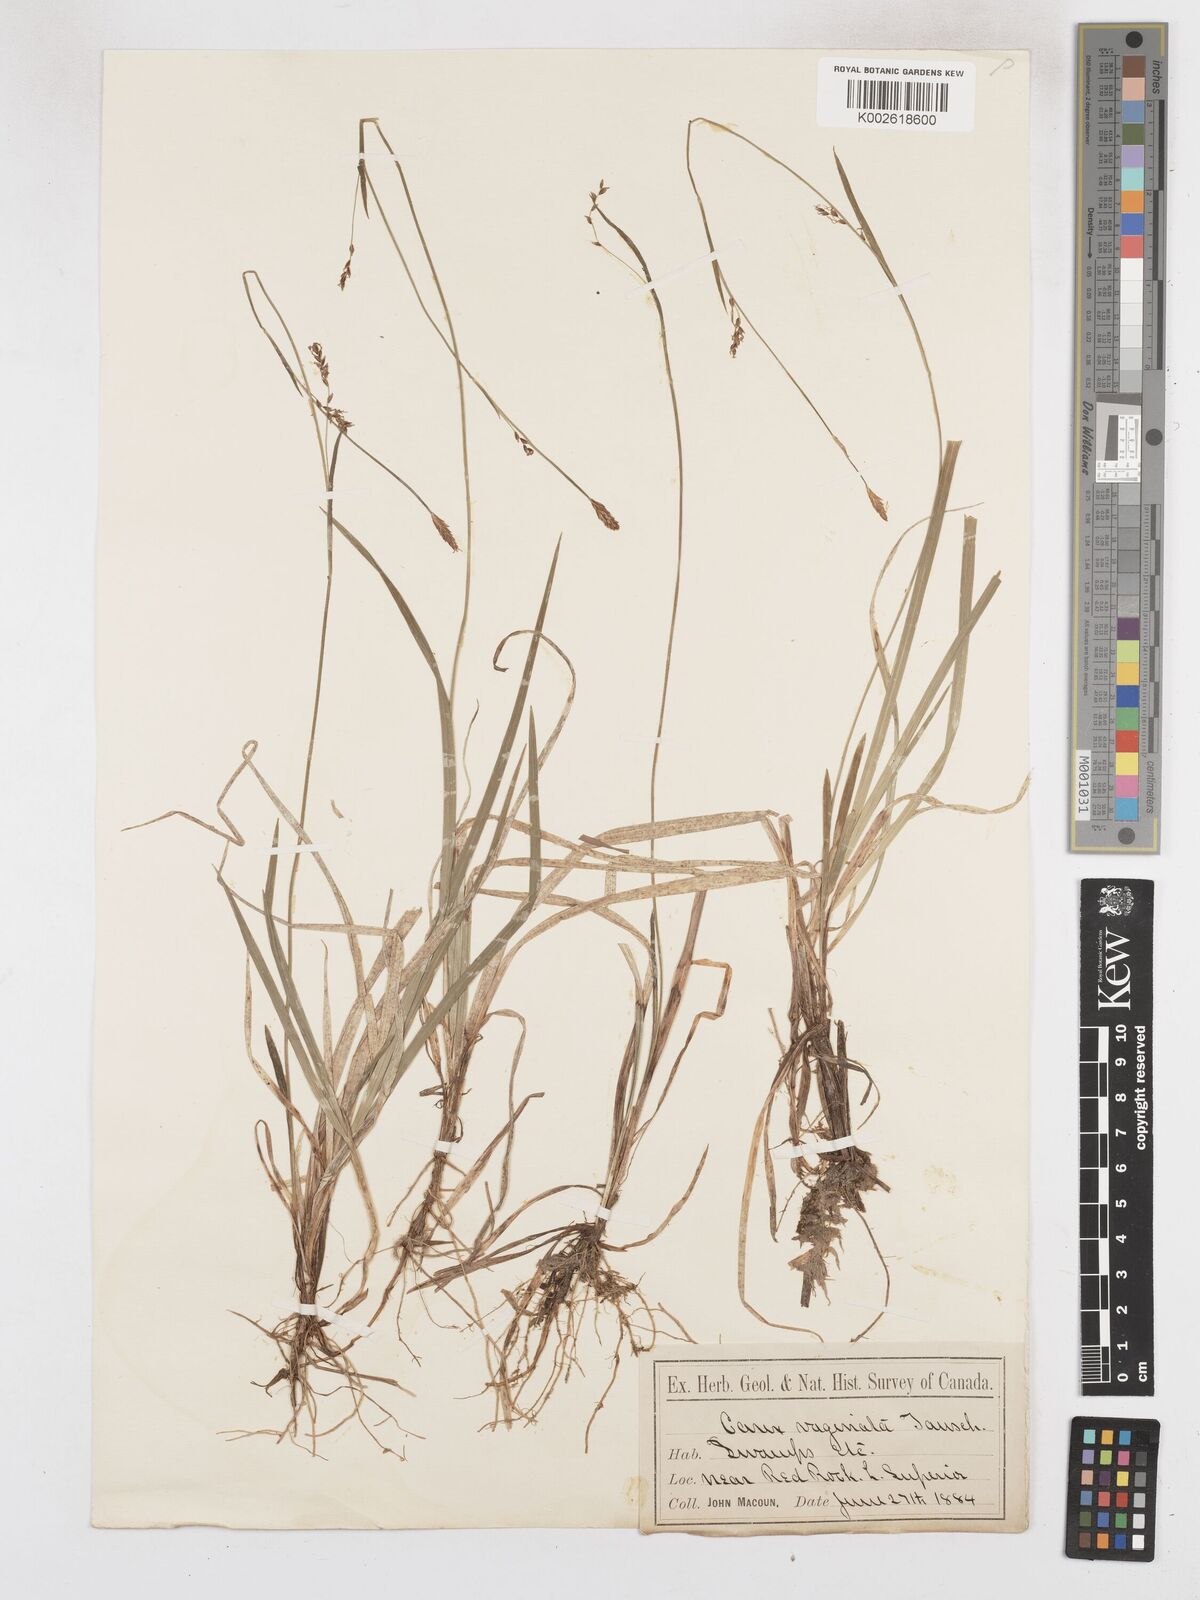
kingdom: Plantae
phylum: Tracheophyta
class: Liliopsida
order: Poales
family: Cyperaceae
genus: Carex
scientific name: Carex vaginata
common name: Sheathed sedge
